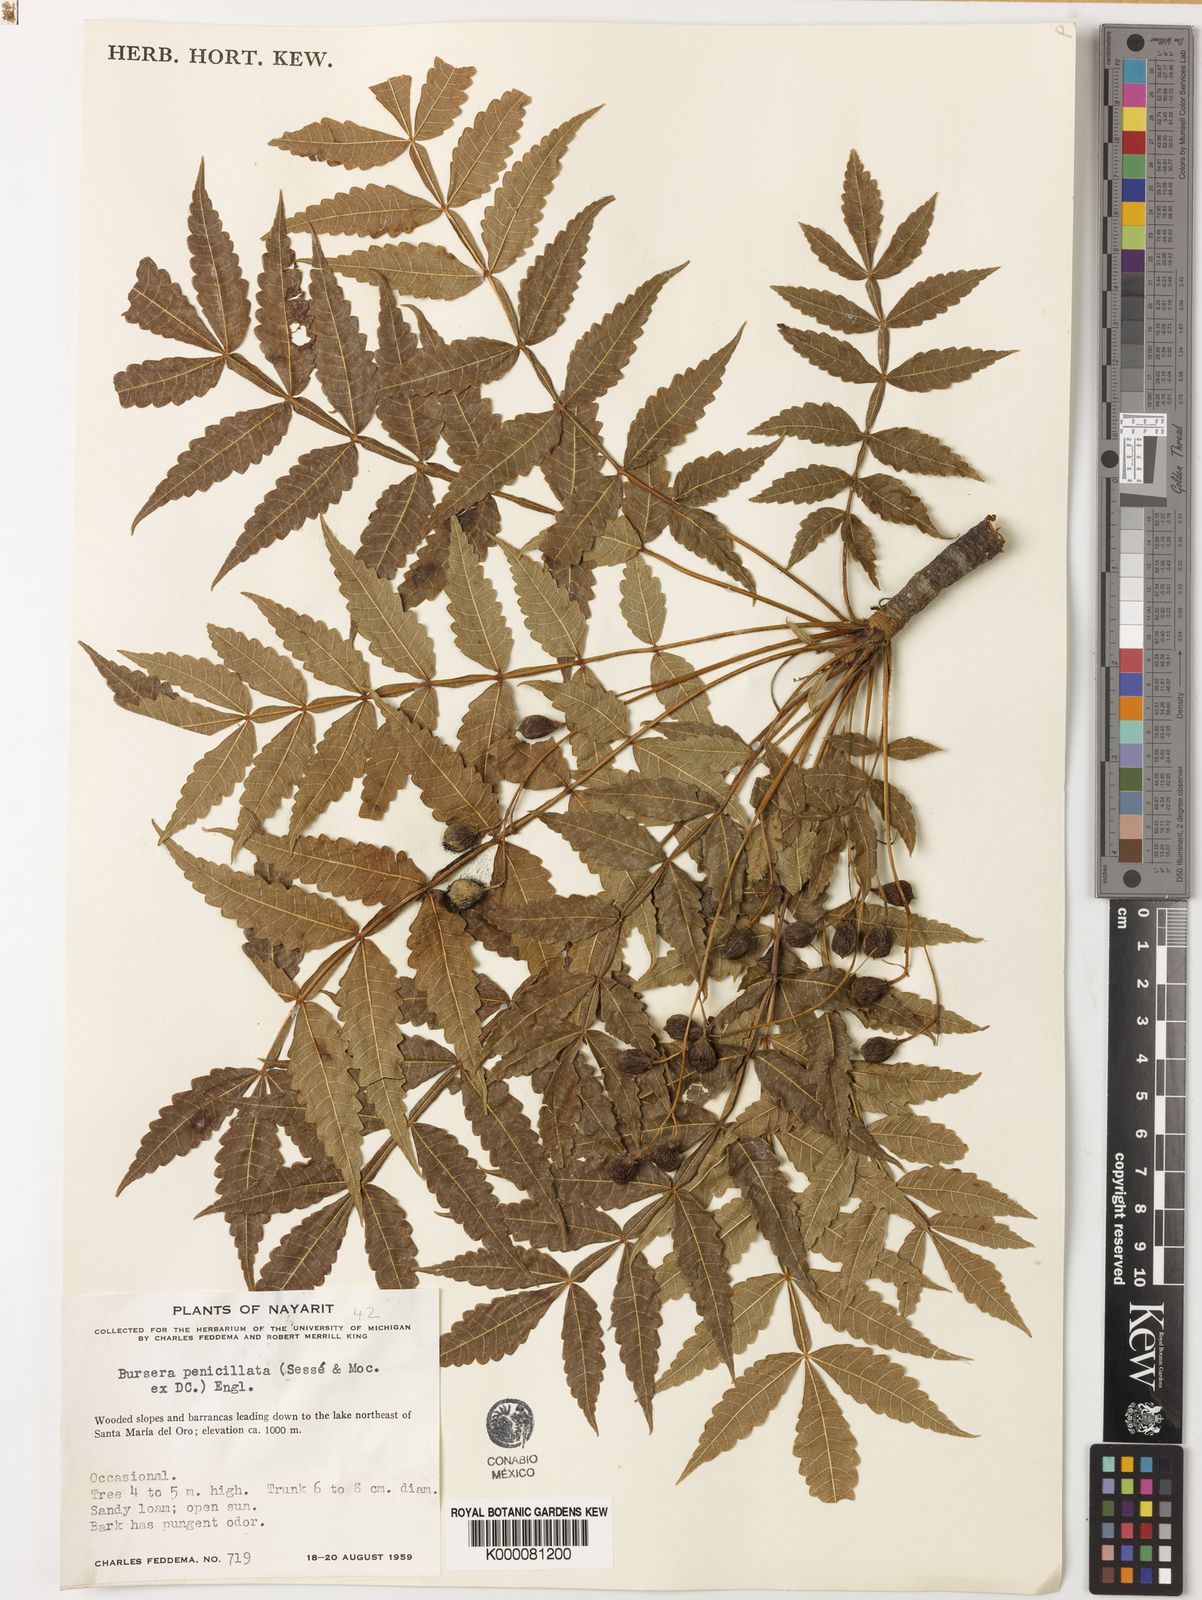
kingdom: Plantae
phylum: Tracheophyta
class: Magnoliopsida
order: Sapindales
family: Burseraceae
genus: Bursera
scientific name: Bursera penicillata
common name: Indian-lavender
